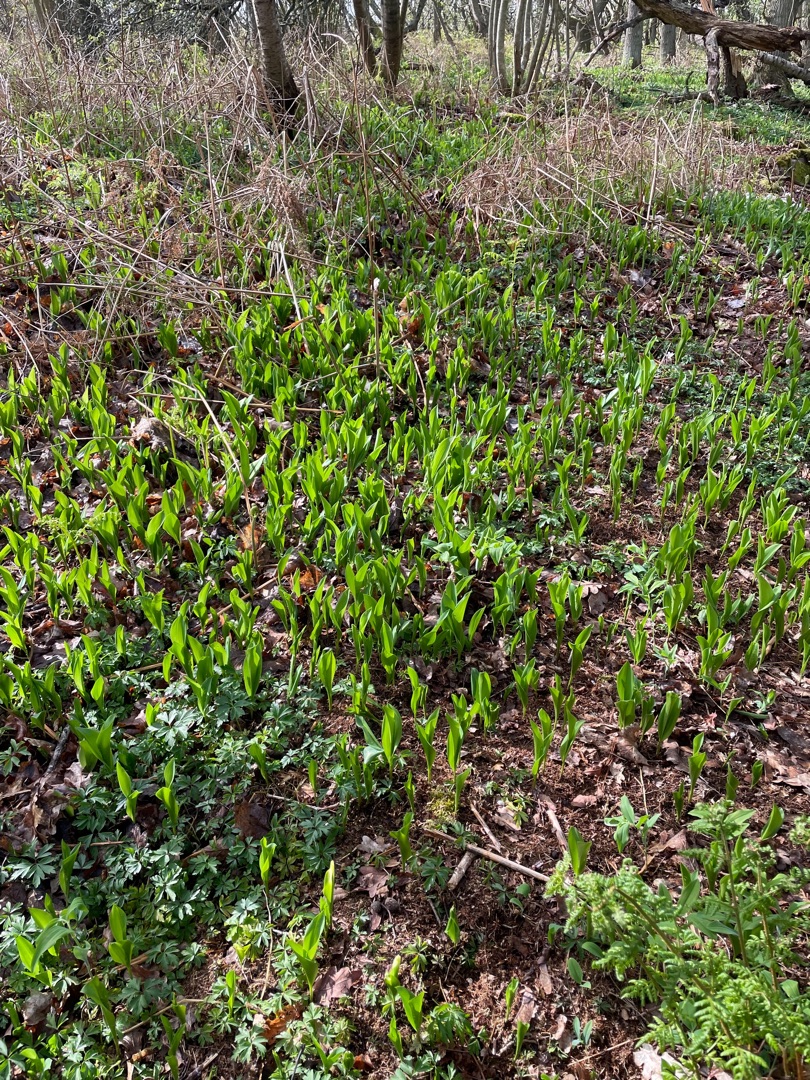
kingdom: Plantae
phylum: Tracheophyta
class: Liliopsida
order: Asparagales
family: Asparagaceae
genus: Convallaria
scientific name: Convallaria majalis
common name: Liljekonval
